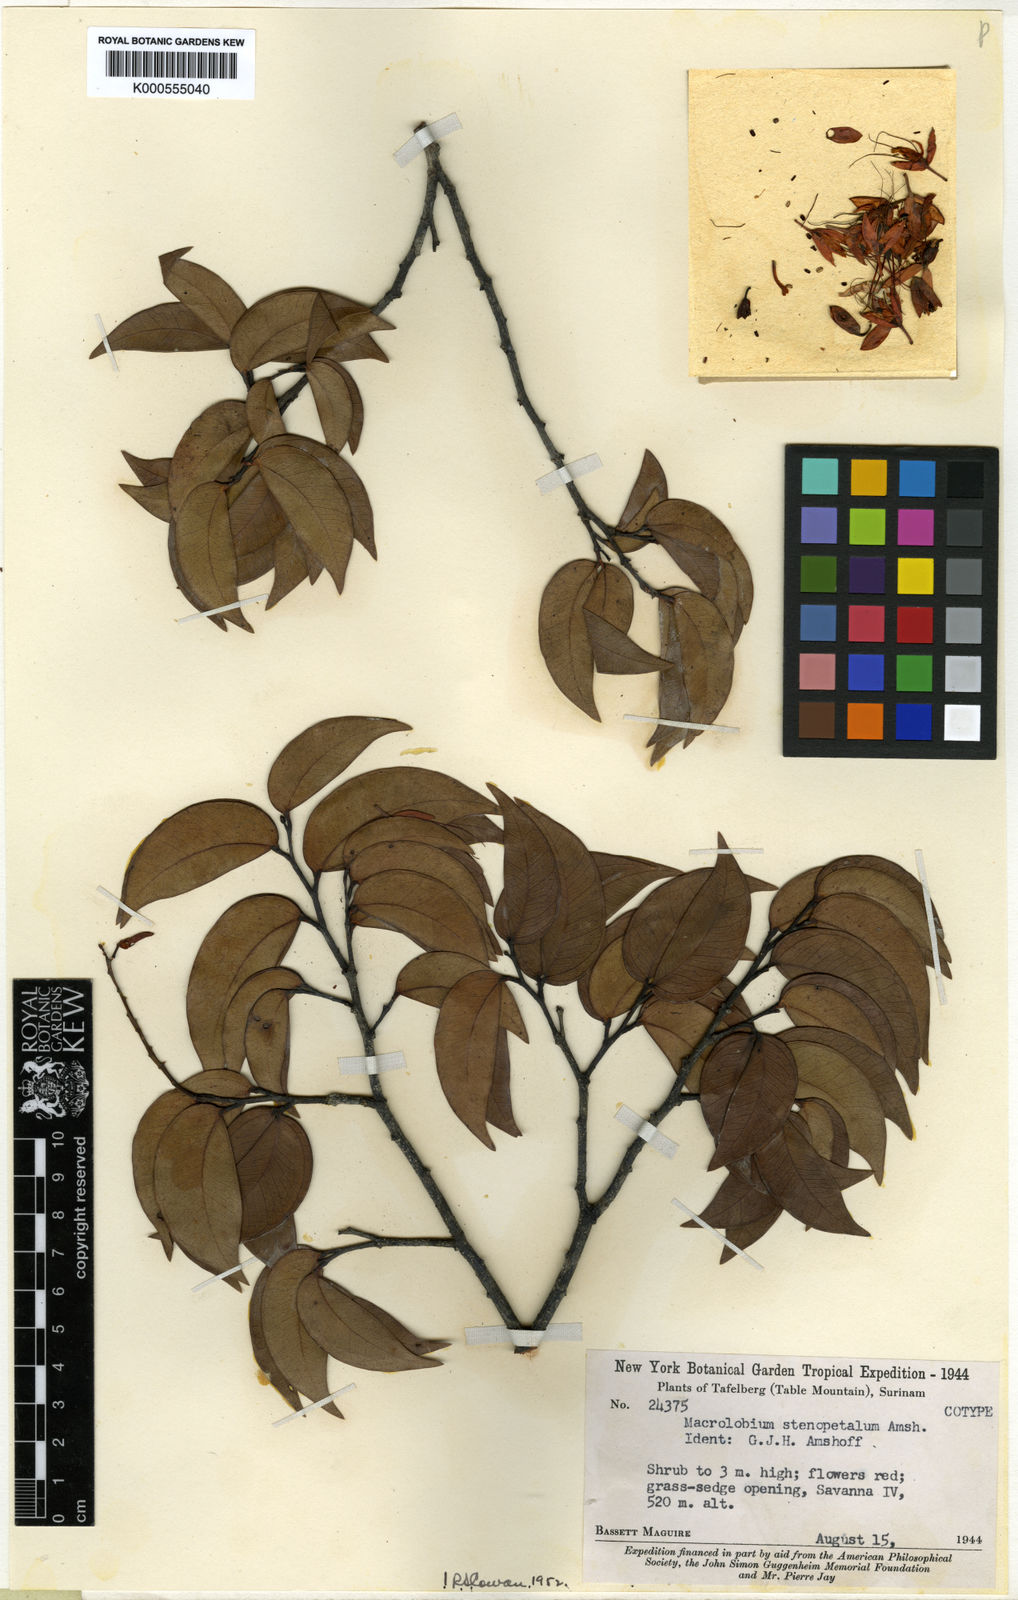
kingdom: Plantae
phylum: Tracheophyta
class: Magnoliopsida
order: Fabales
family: Fabaceae
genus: Macrolobium
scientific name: Macrolobium stenopetalum
